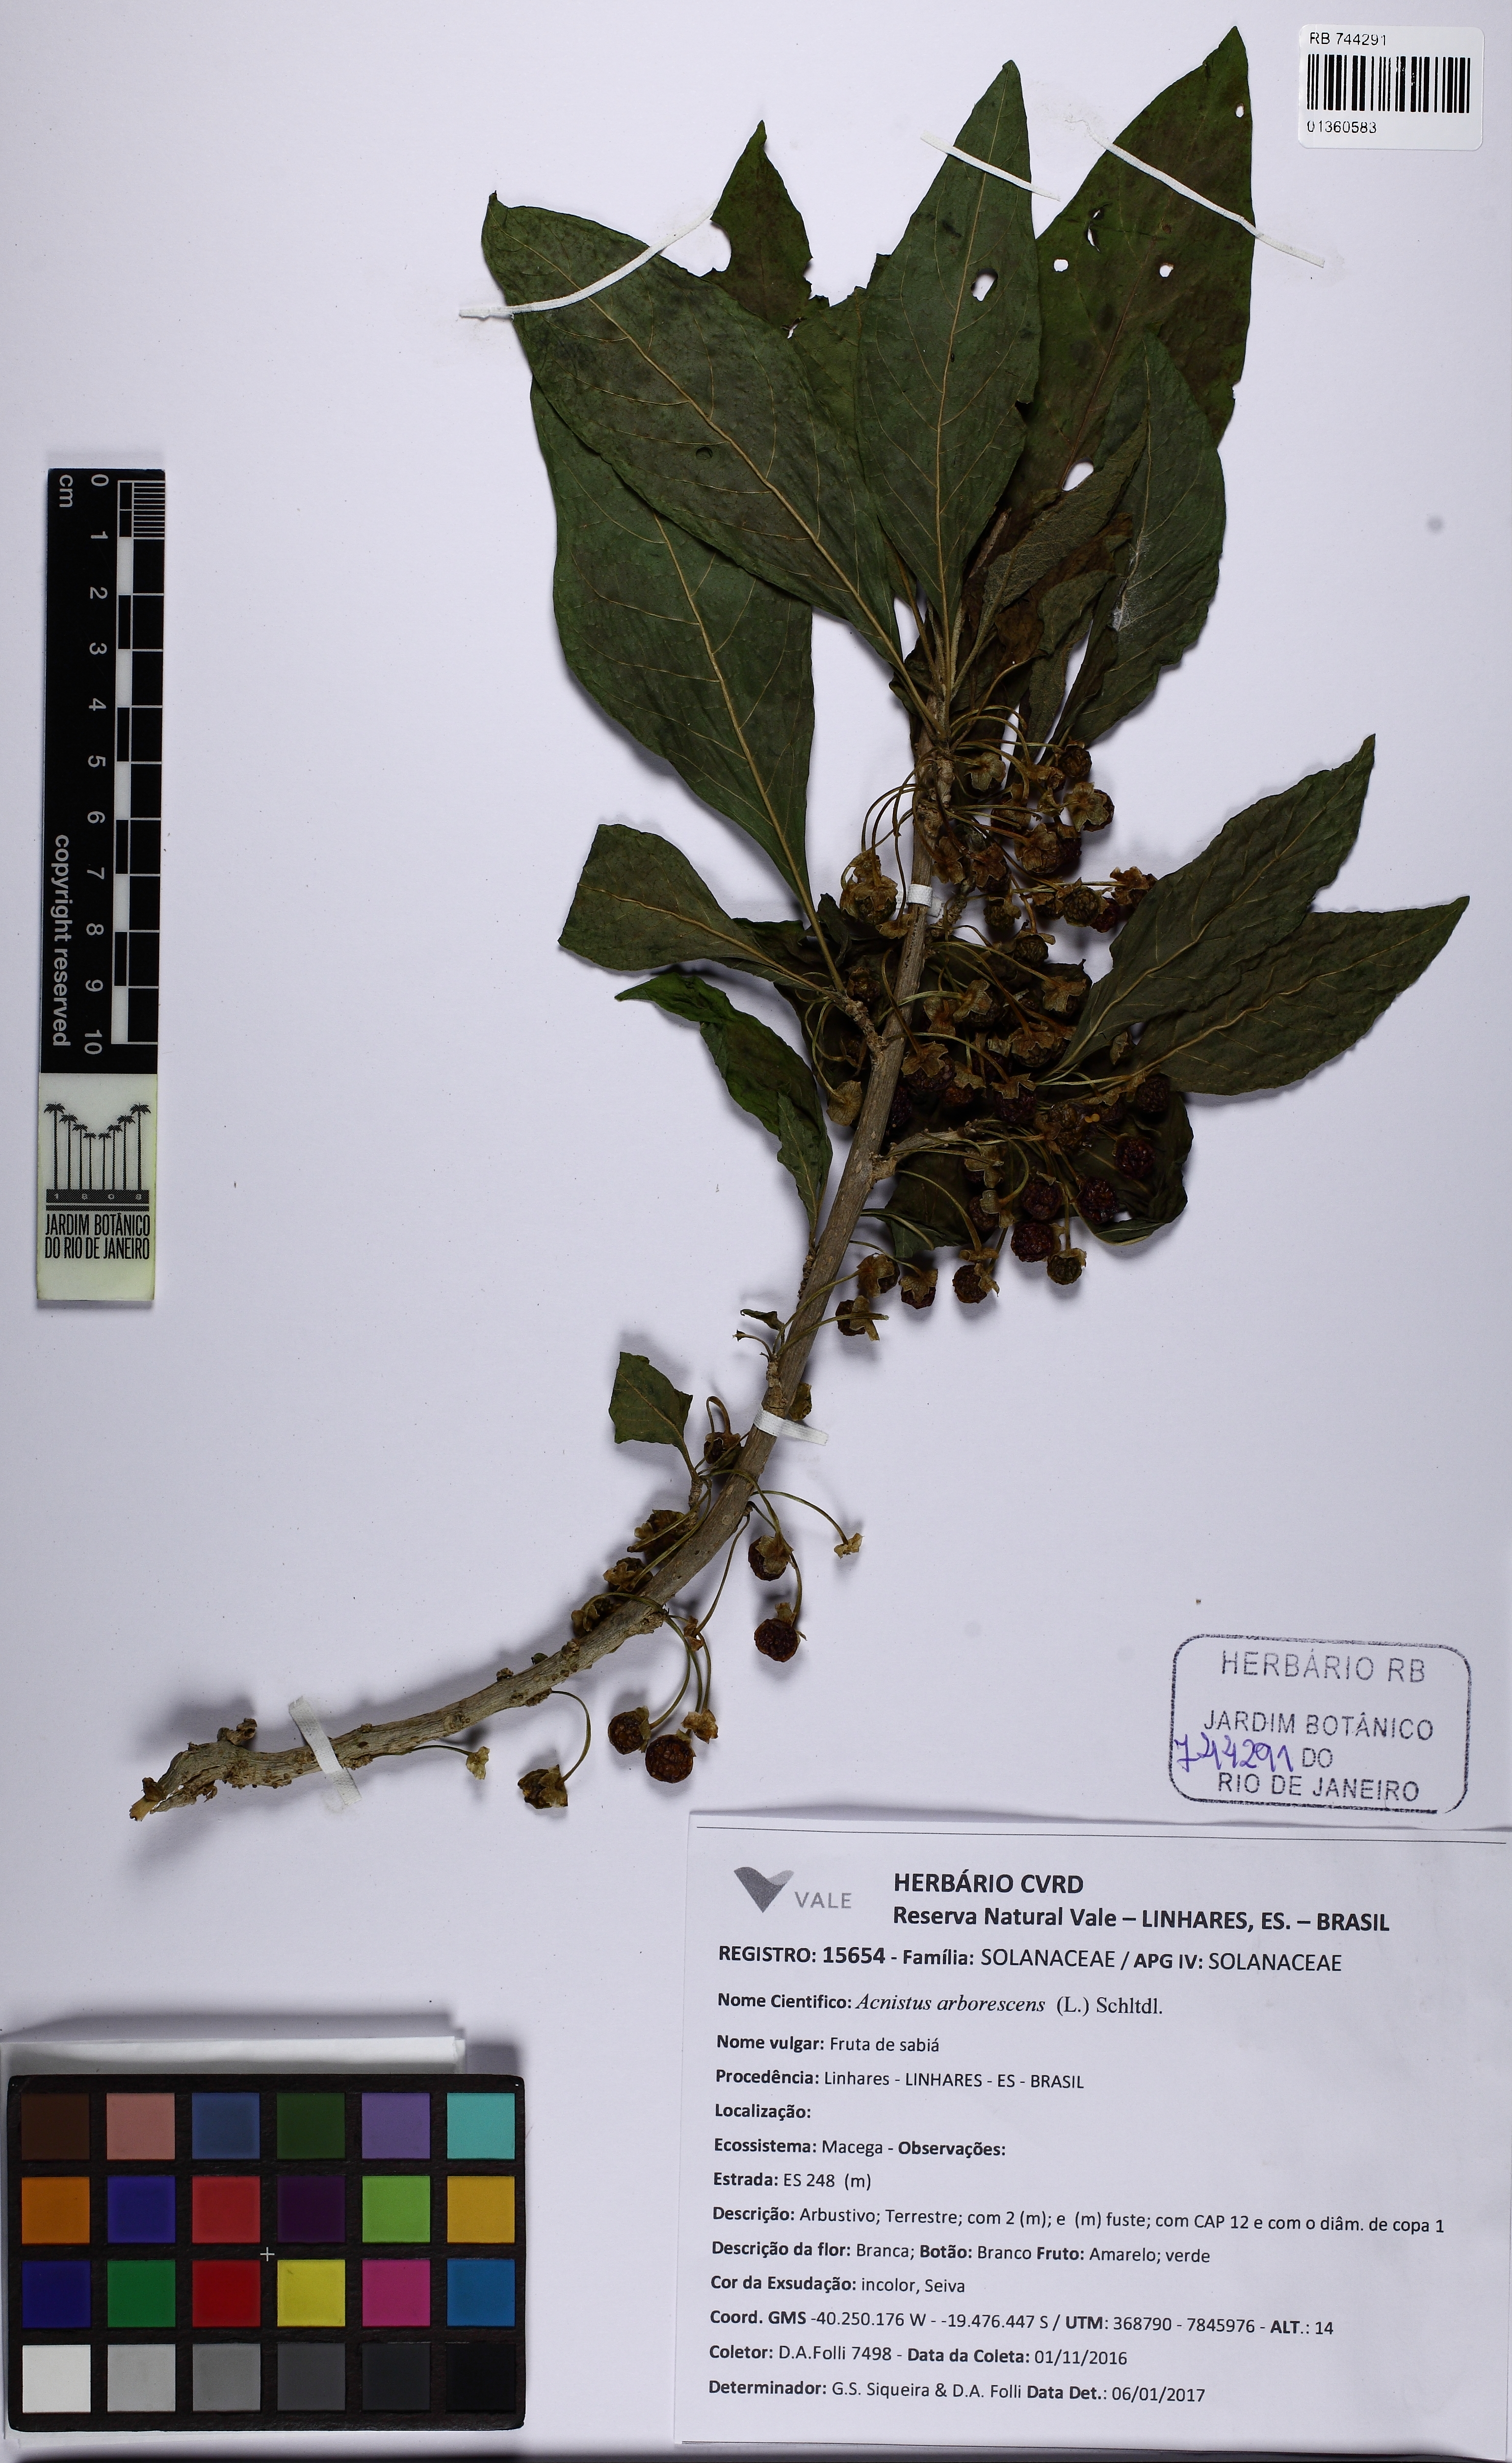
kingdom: Plantae
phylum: Tracheophyta
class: Magnoliopsida
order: Solanales
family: Solanaceae
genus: Iochroma
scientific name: Iochroma arborescens
